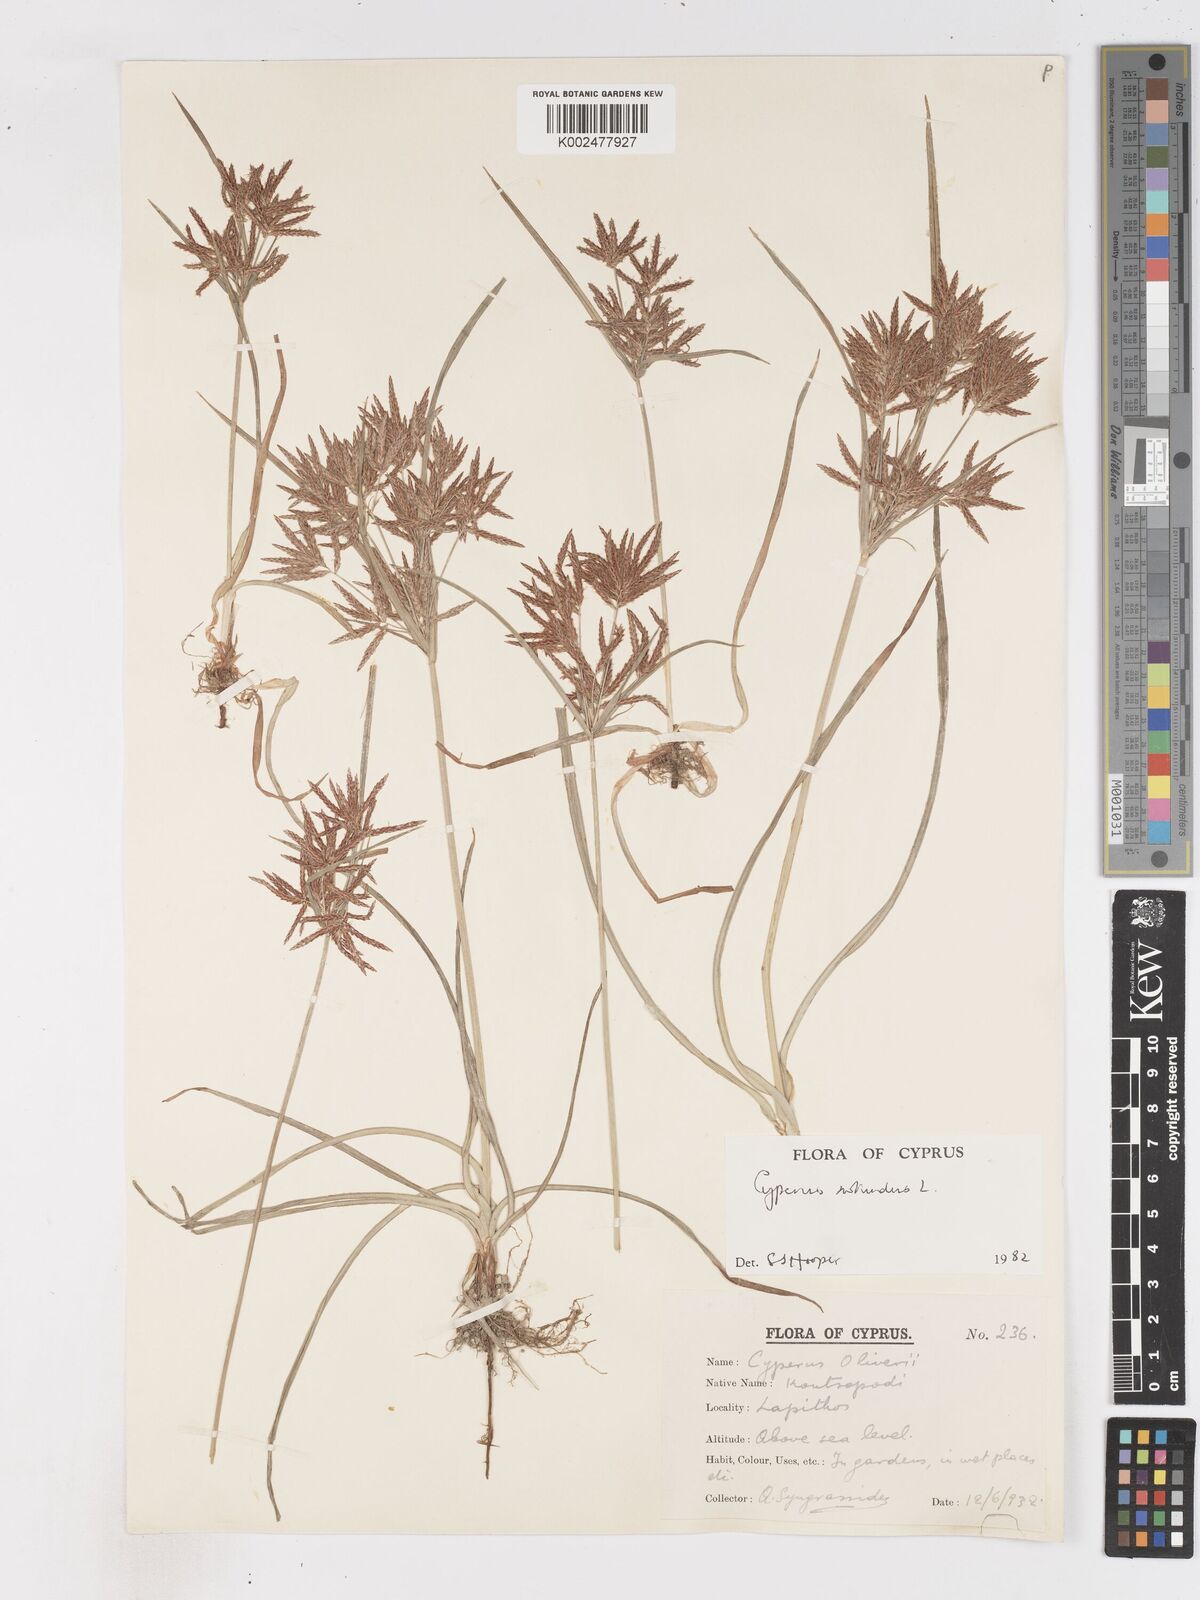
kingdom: Plantae
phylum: Tracheophyta
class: Liliopsida
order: Poales
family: Cyperaceae
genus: Cyperus
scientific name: Cyperus rotundus
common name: Nutgrass
